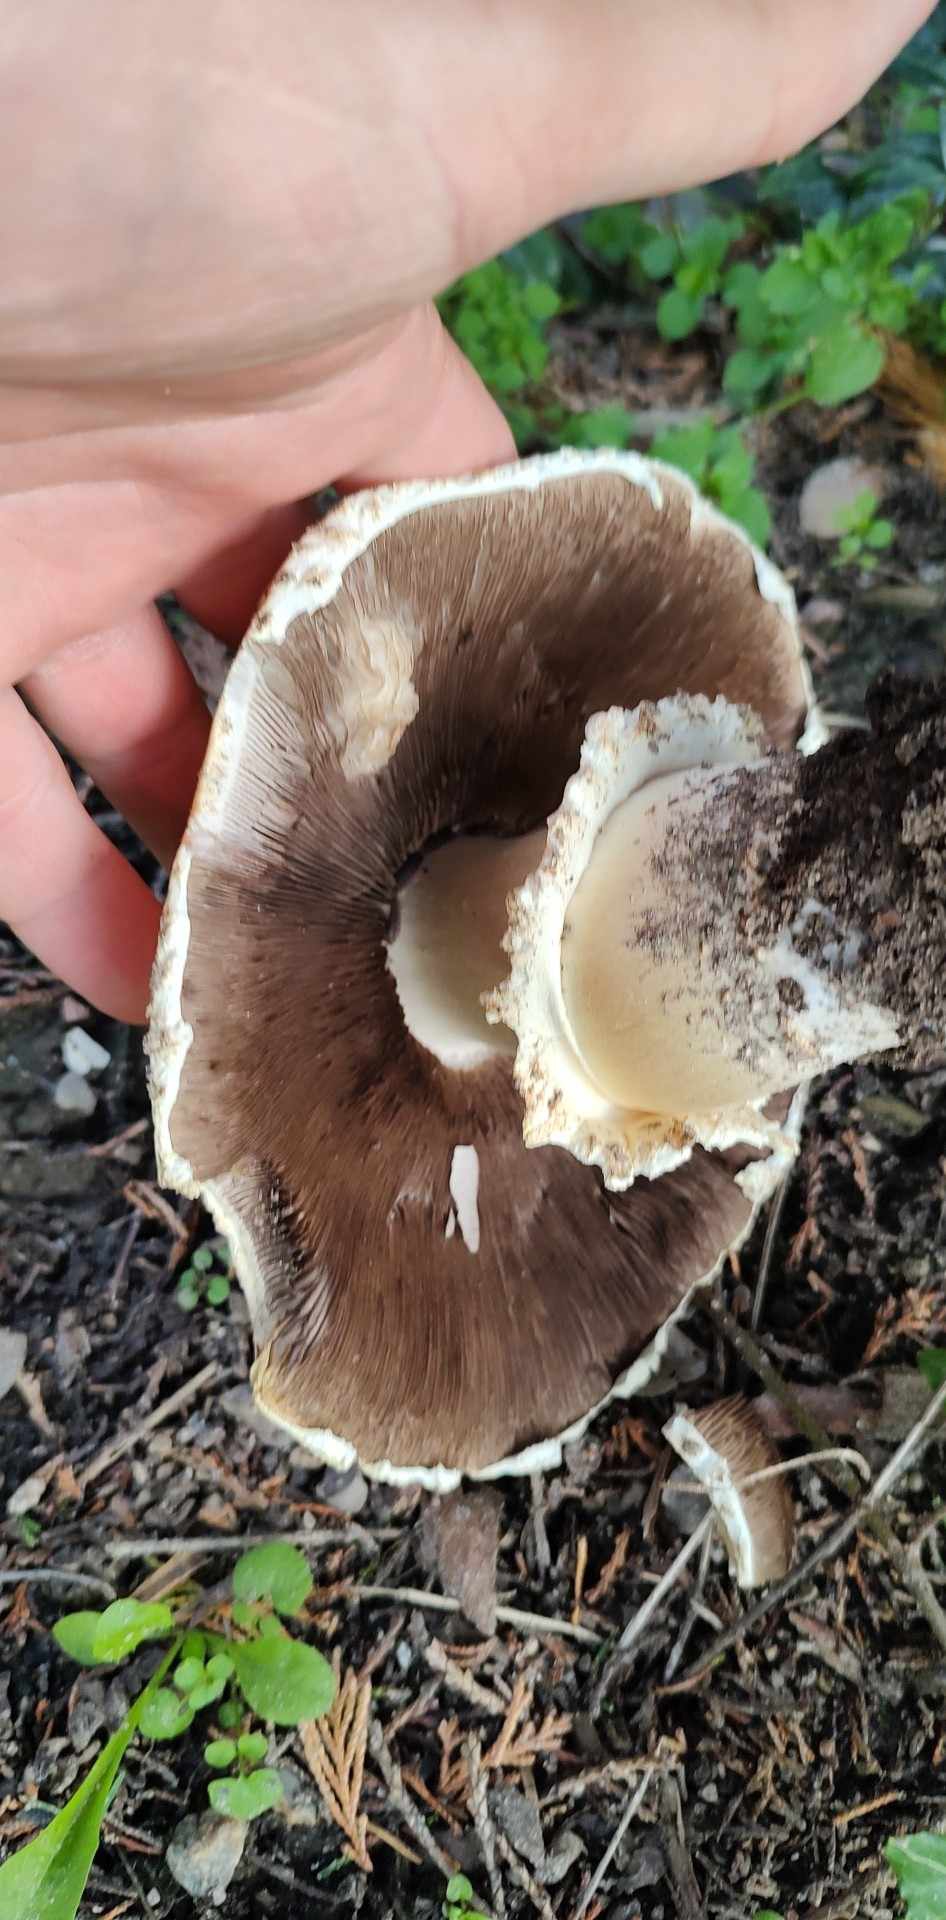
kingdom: Fungi
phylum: Basidiomycota
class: Agaricomycetes
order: Agaricales
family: Agaricaceae
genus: Agaricus
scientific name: Agaricus
